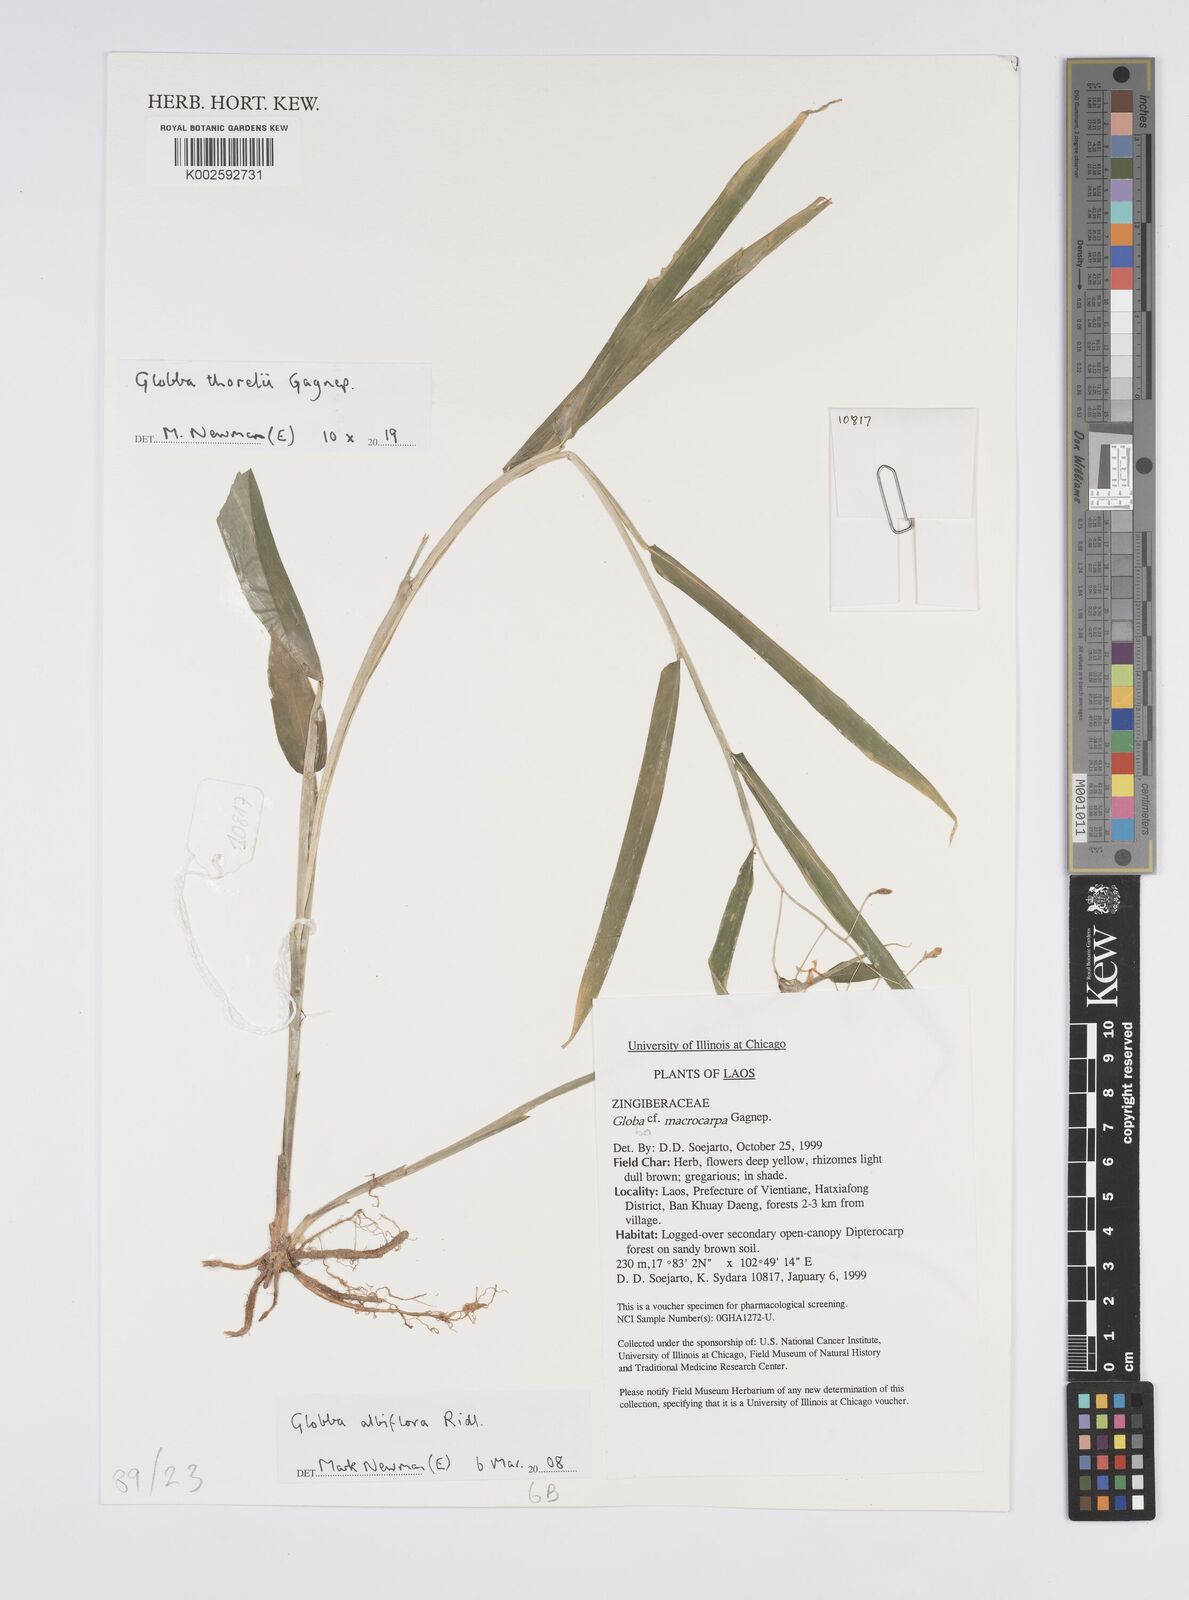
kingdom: Plantae
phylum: Tracheophyta
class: Liliopsida
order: Zingiberales
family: Zingiberaceae
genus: Globba
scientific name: Globba thorelii
